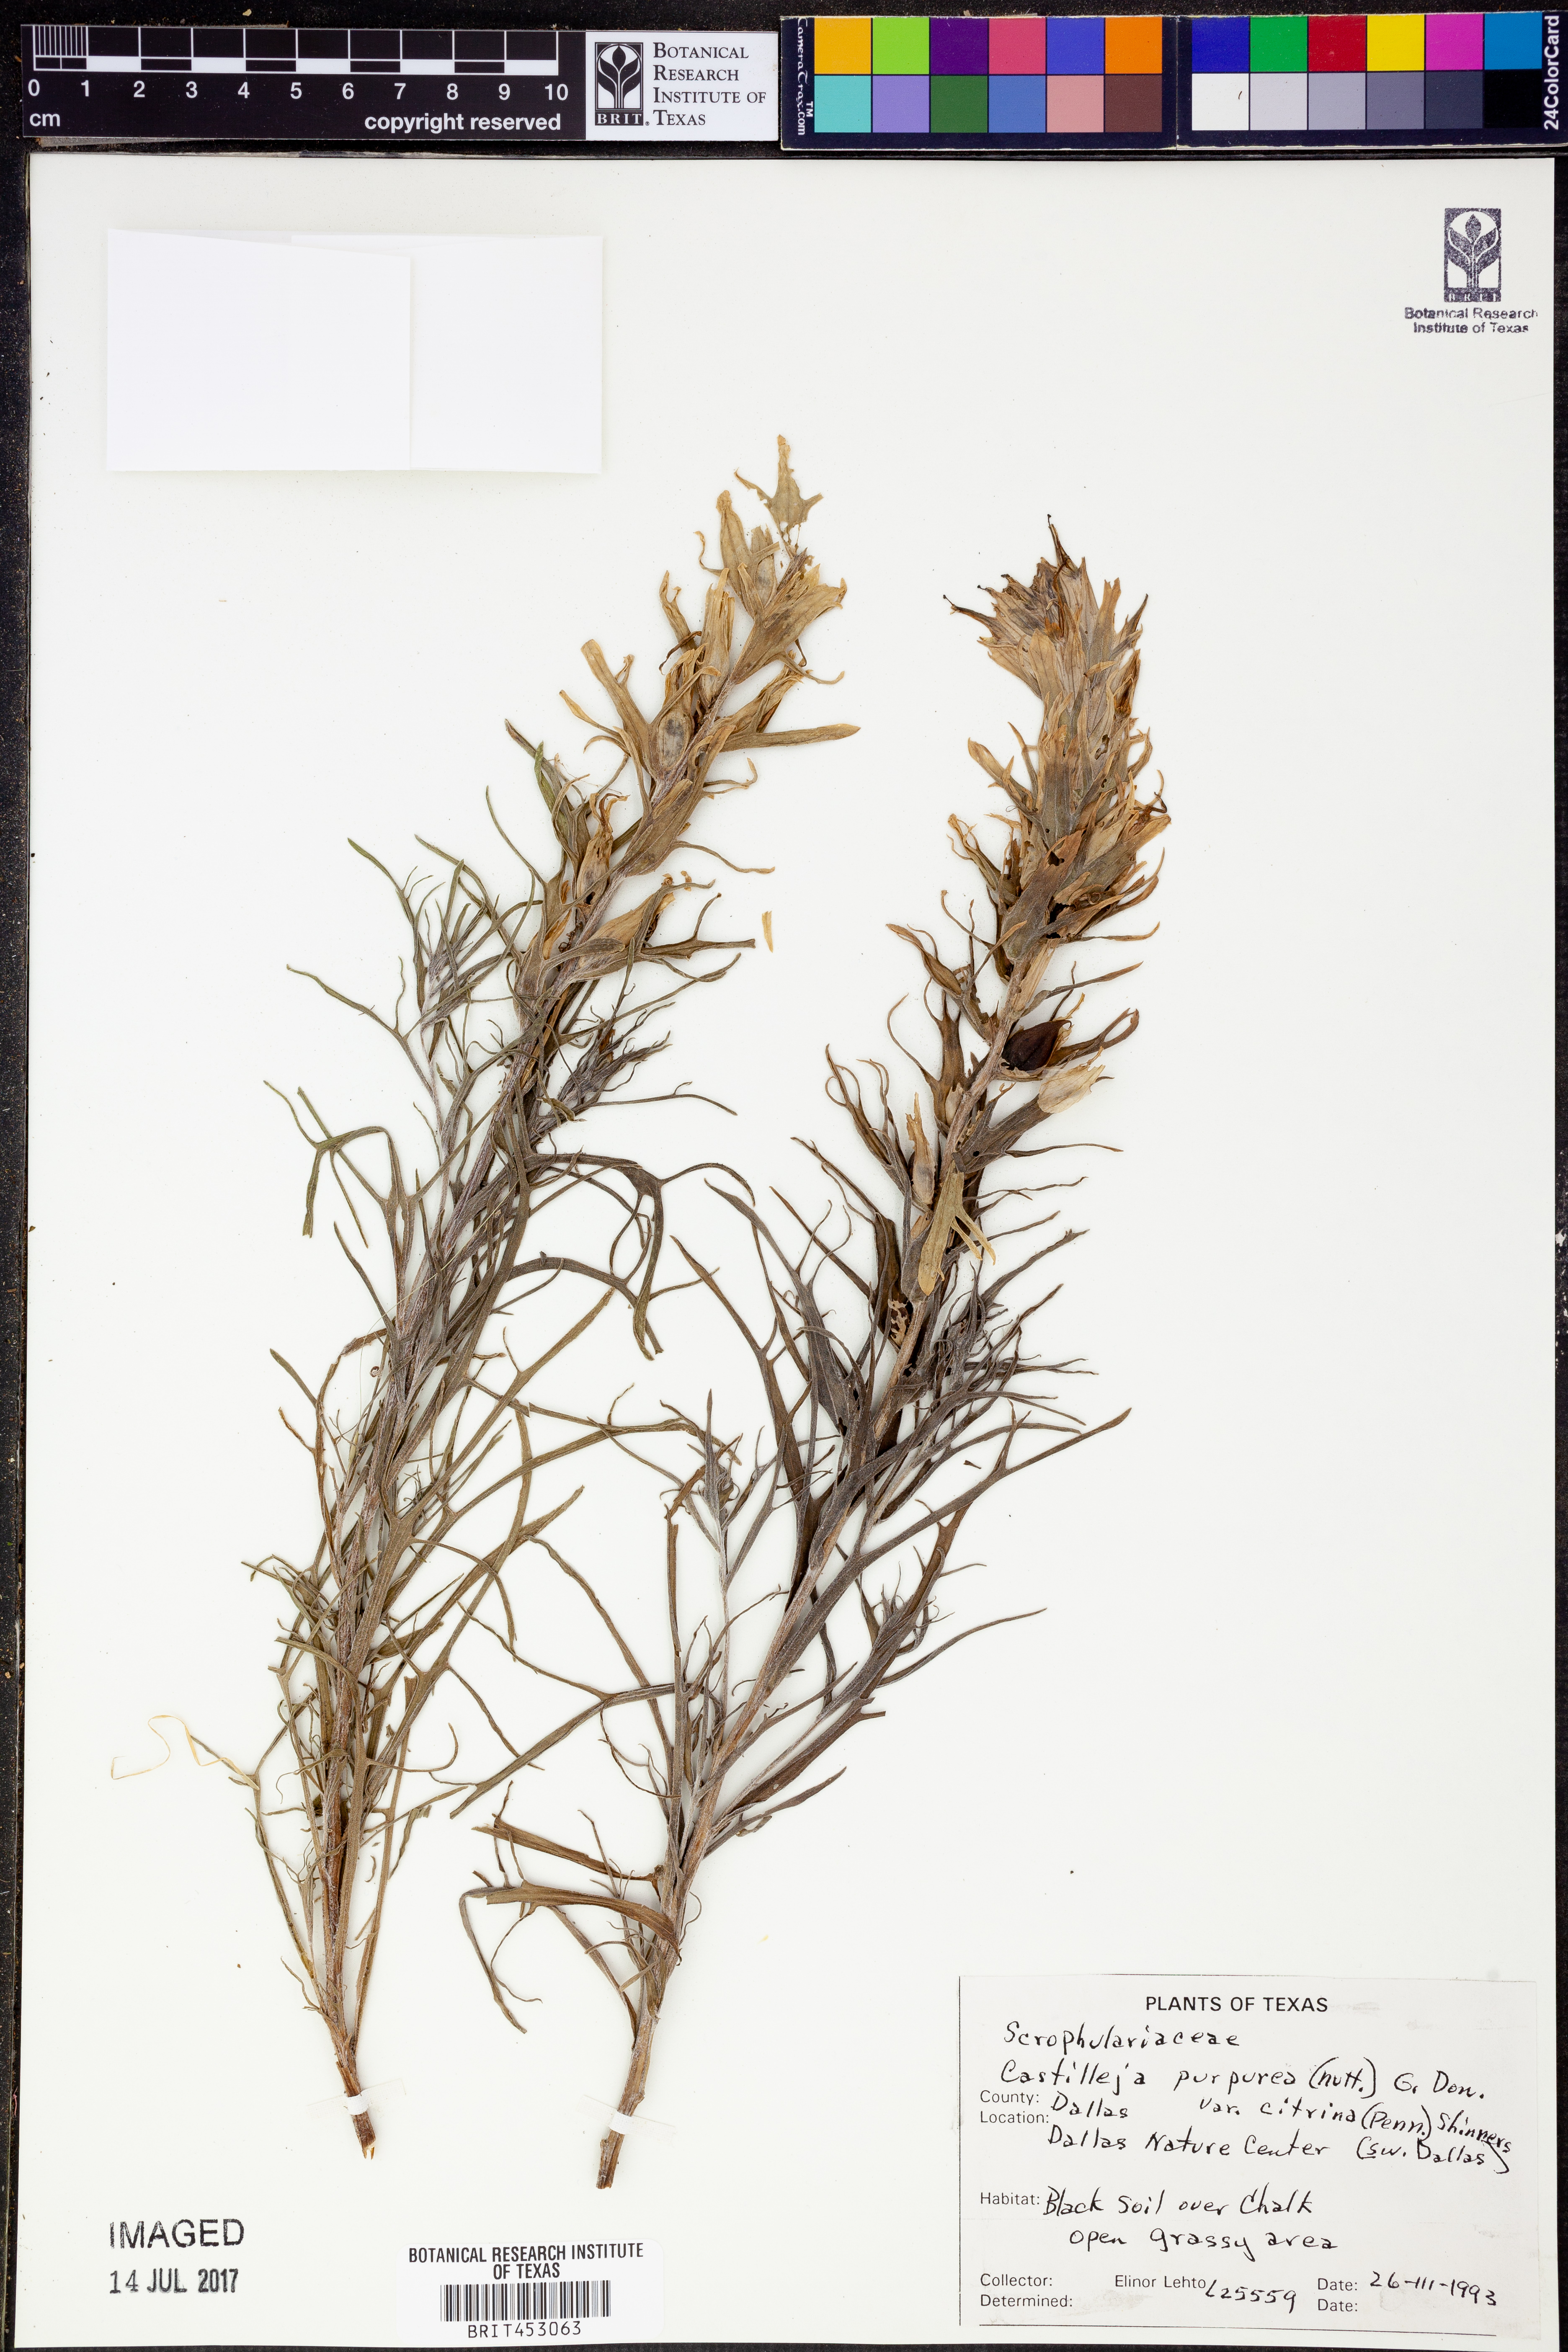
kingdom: Plantae
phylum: Tracheophyta
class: Magnoliopsida
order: Lamiales
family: Orobanchaceae
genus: Castilleja
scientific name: Castilleja citrina
